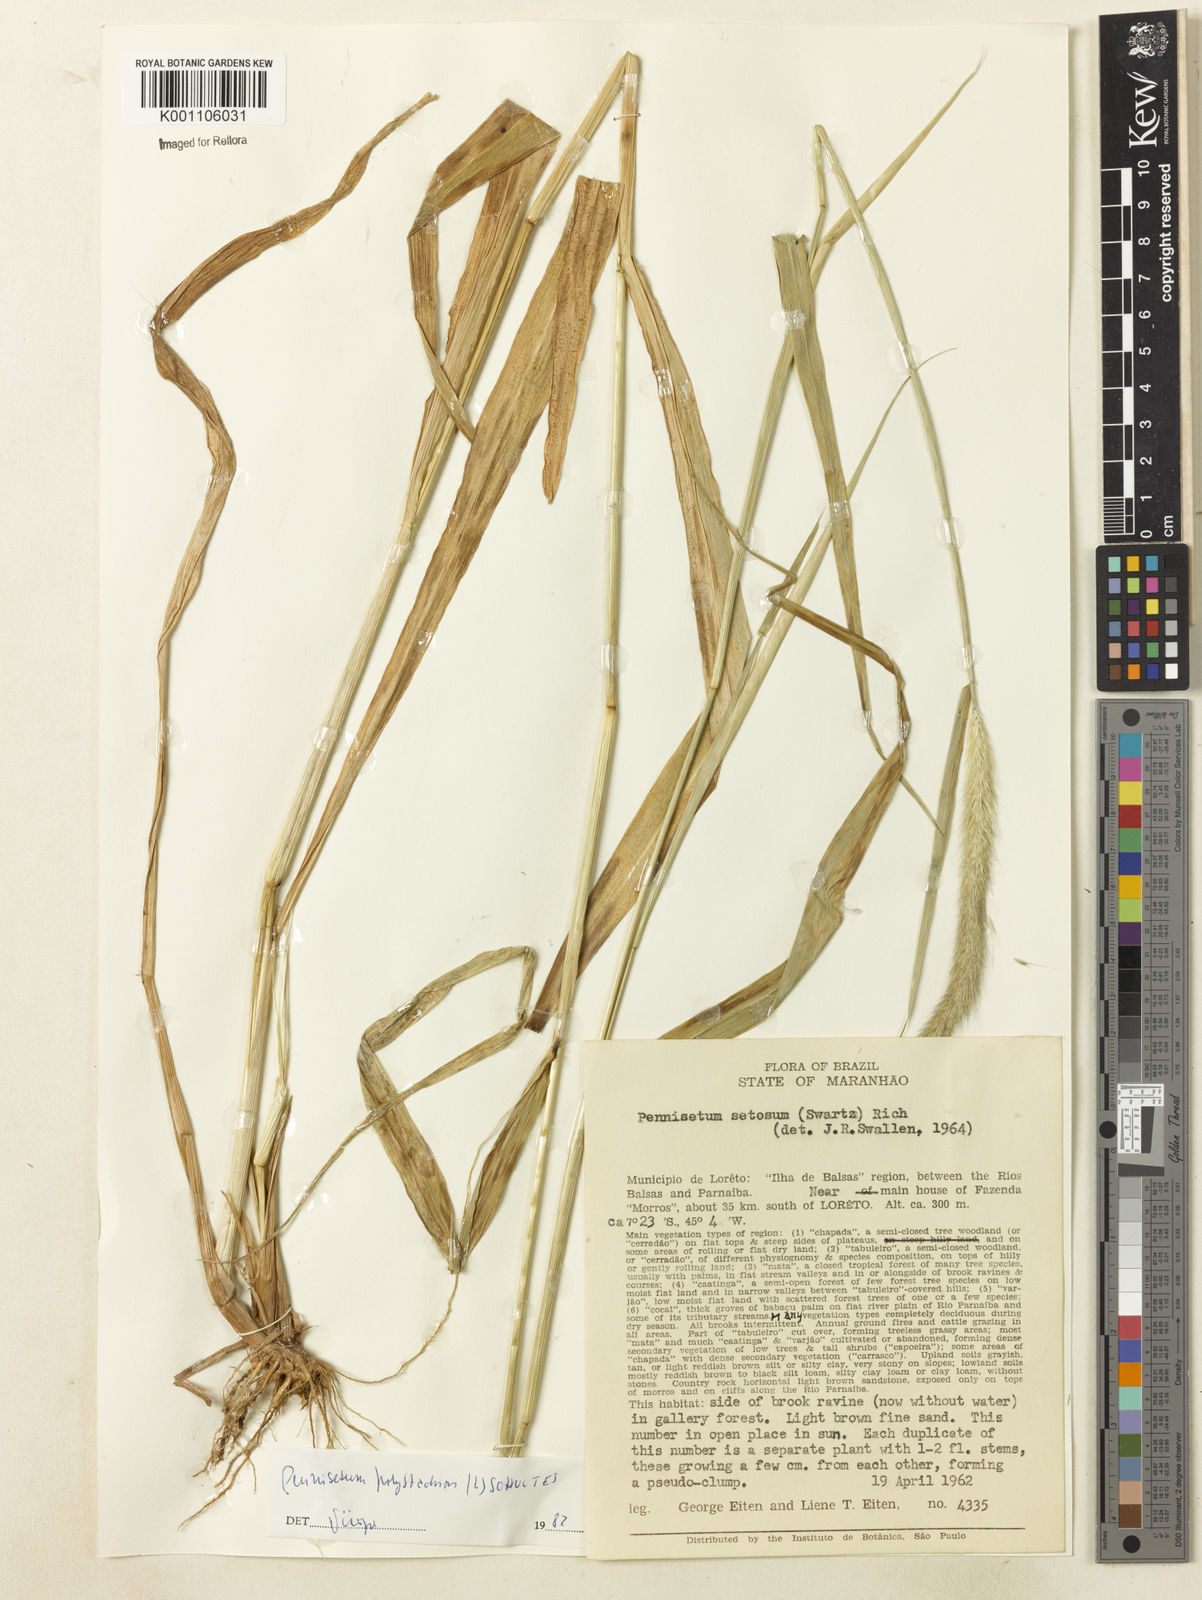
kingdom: Plantae
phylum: Tracheophyta
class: Liliopsida
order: Poales
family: Poaceae
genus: Setaria
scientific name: Setaria parviflora
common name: Knotroot bristle-grass
